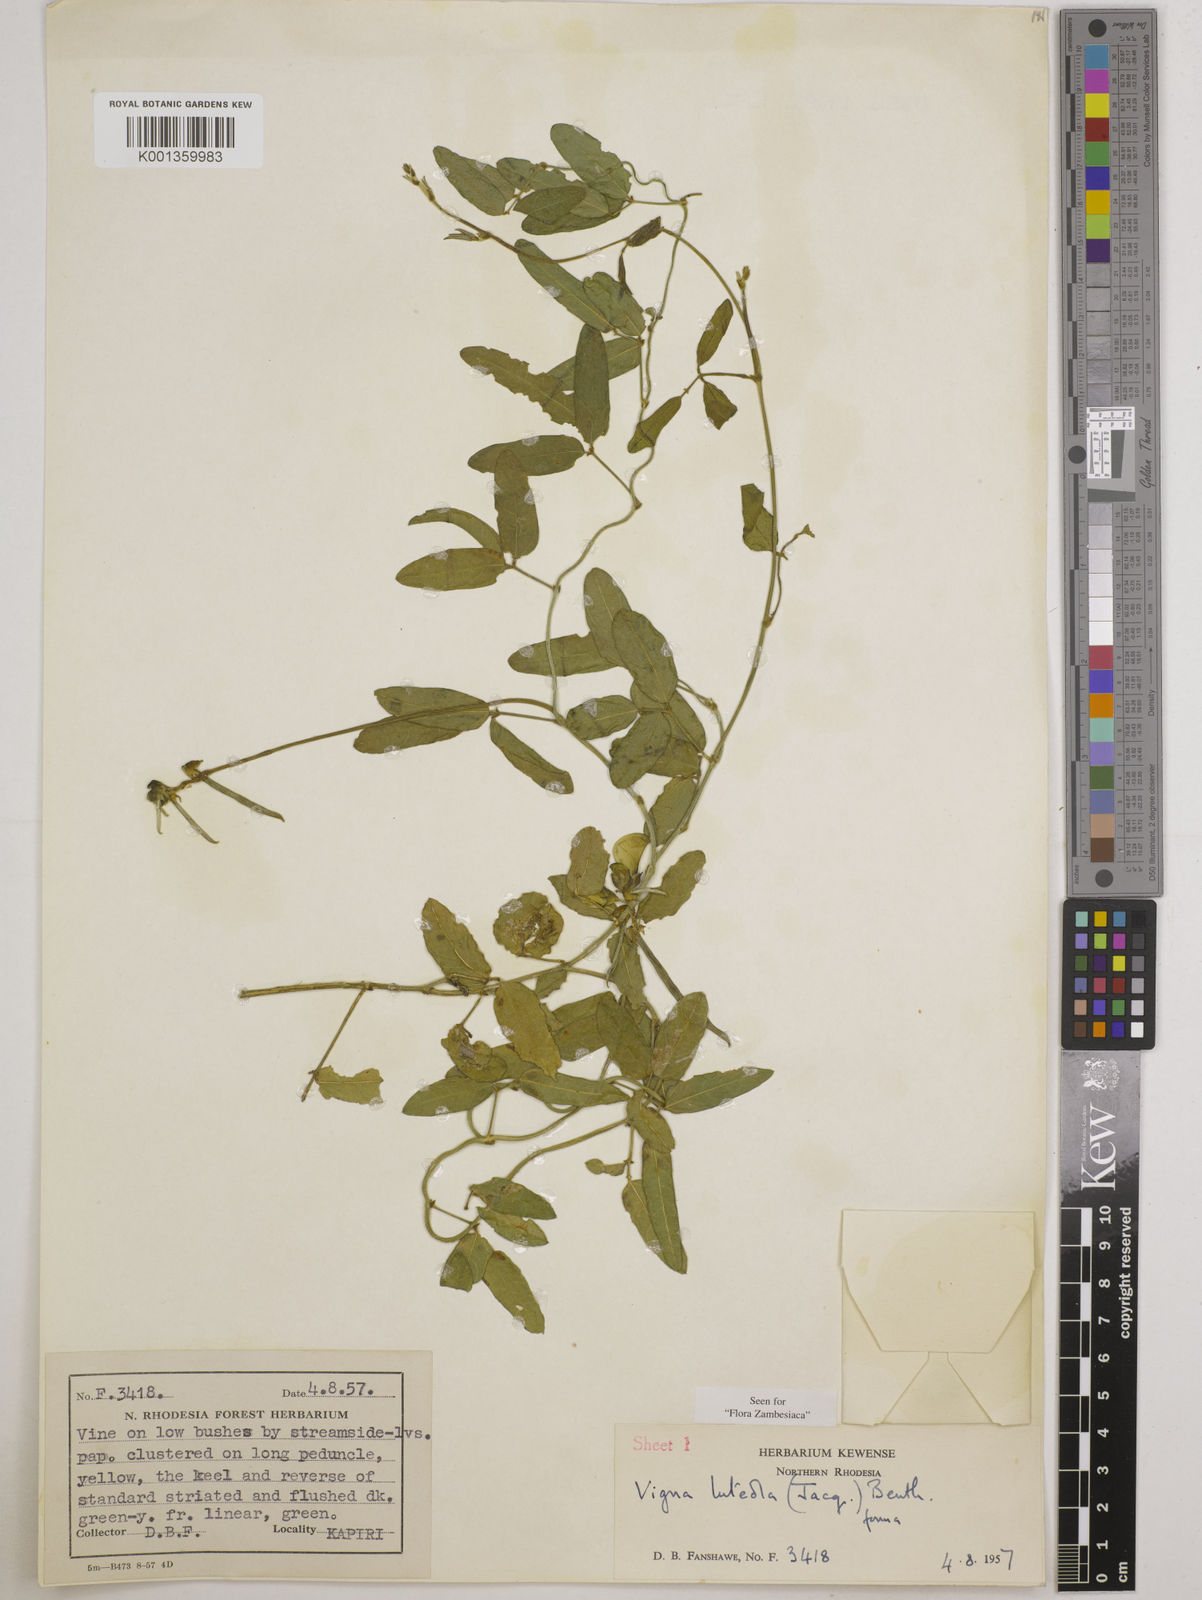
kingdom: Plantae
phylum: Tracheophyta
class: Magnoliopsida
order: Fabales
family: Fabaceae
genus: Vigna
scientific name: Vigna luteola
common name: Hairypod cowpea
